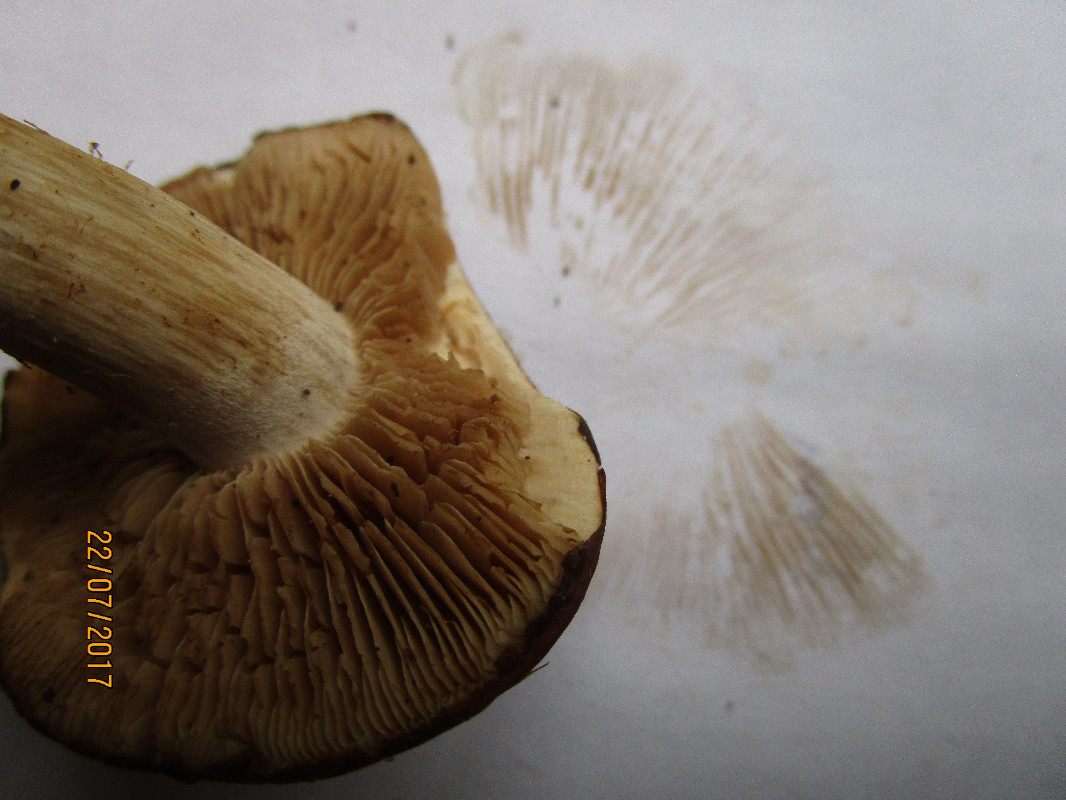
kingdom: Fungi
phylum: Basidiomycota
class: Agaricomycetes
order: Agaricales
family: Hymenogastraceae
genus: Hebeloma
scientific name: Hebeloma theobrominum
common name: rødbrun tåreblad
